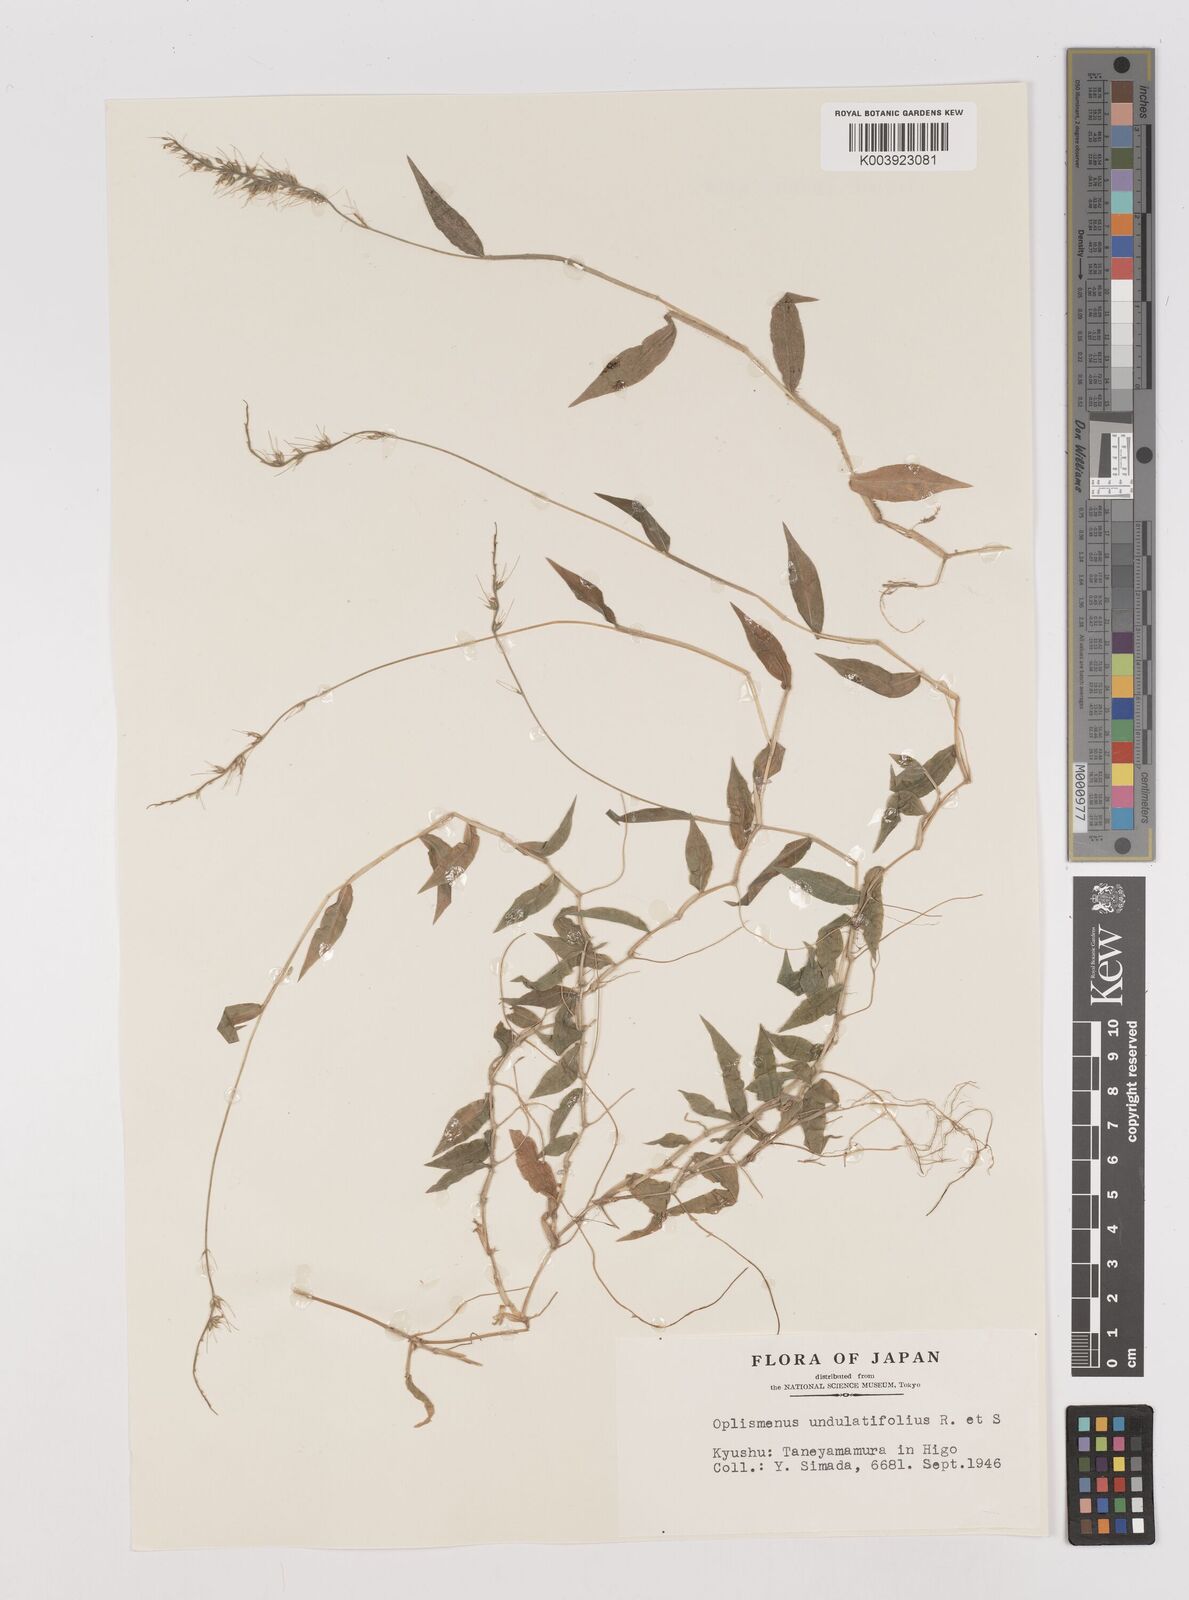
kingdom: Plantae
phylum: Tracheophyta
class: Liliopsida
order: Poales
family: Poaceae
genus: Oplismenus
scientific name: Oplismenus undulatifolius
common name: Wavyleaf basketgrass
